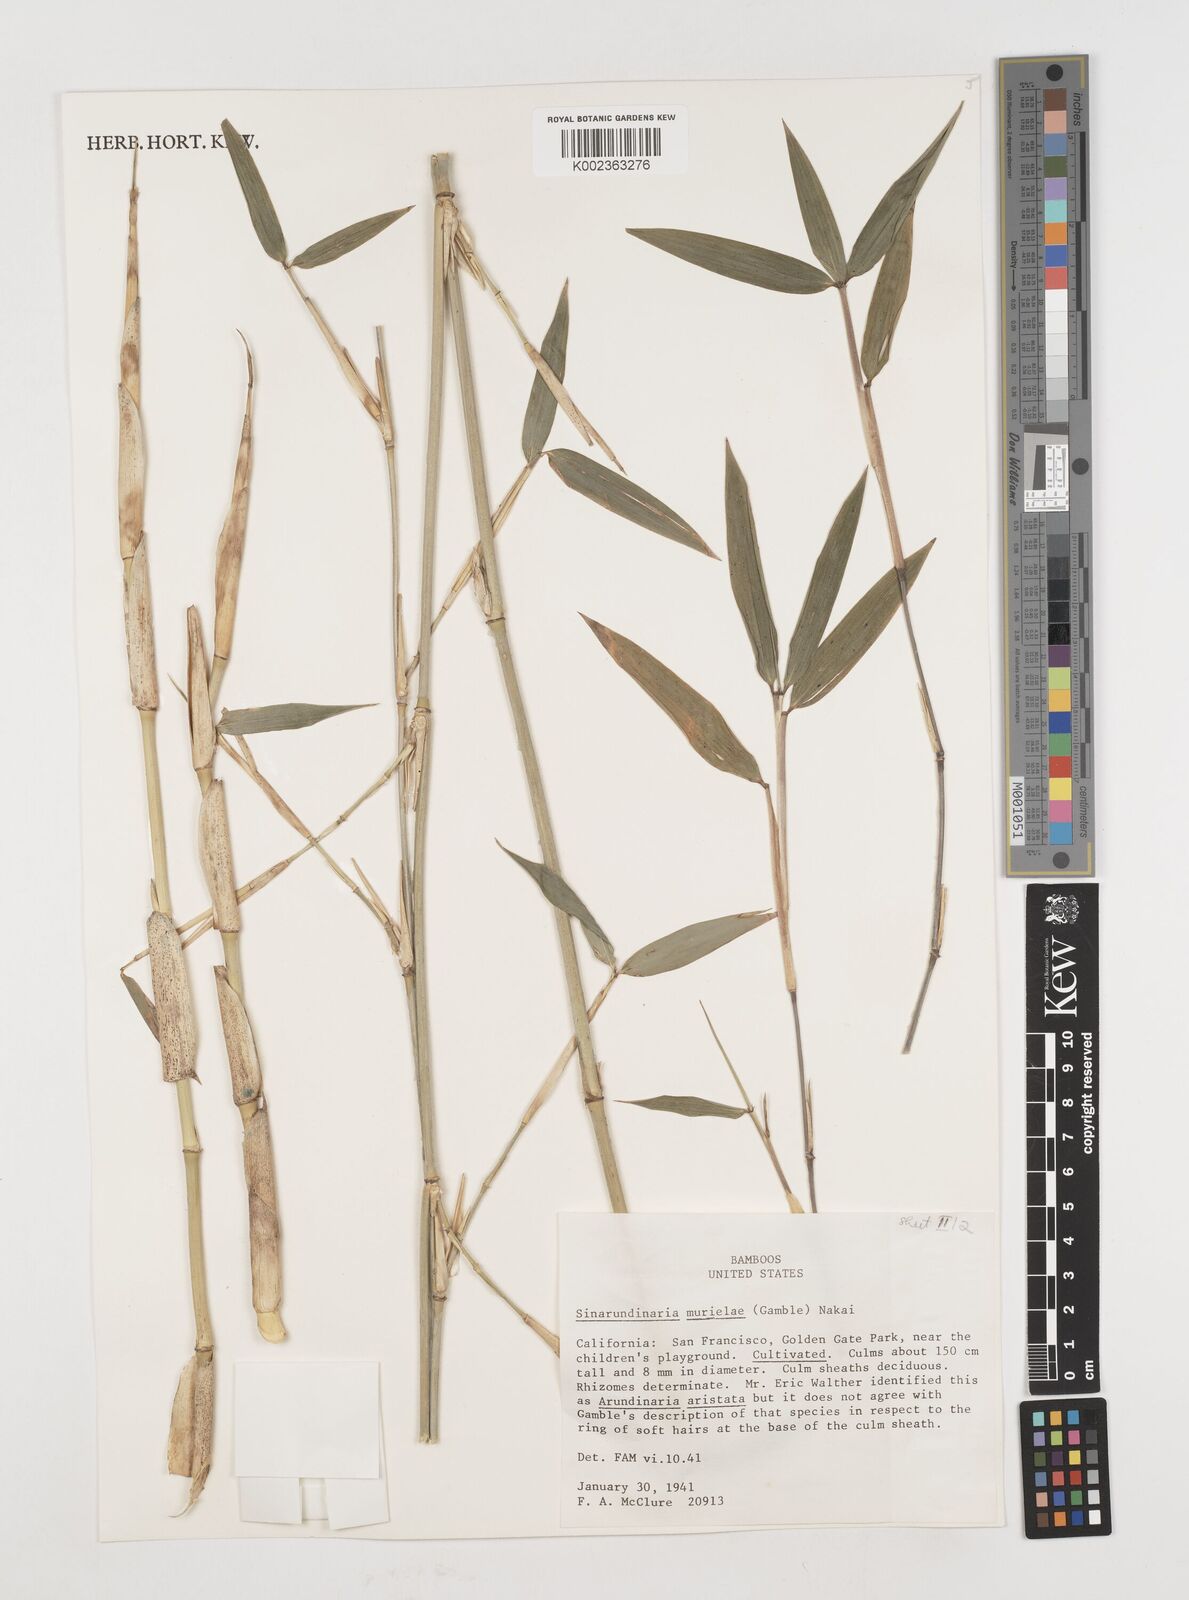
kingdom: Plantae
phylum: Tracheophyta
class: Liliopsida
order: Poales
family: Poaceae
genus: Fargesia
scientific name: Fargesia murielae
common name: Umbrella bamboo
